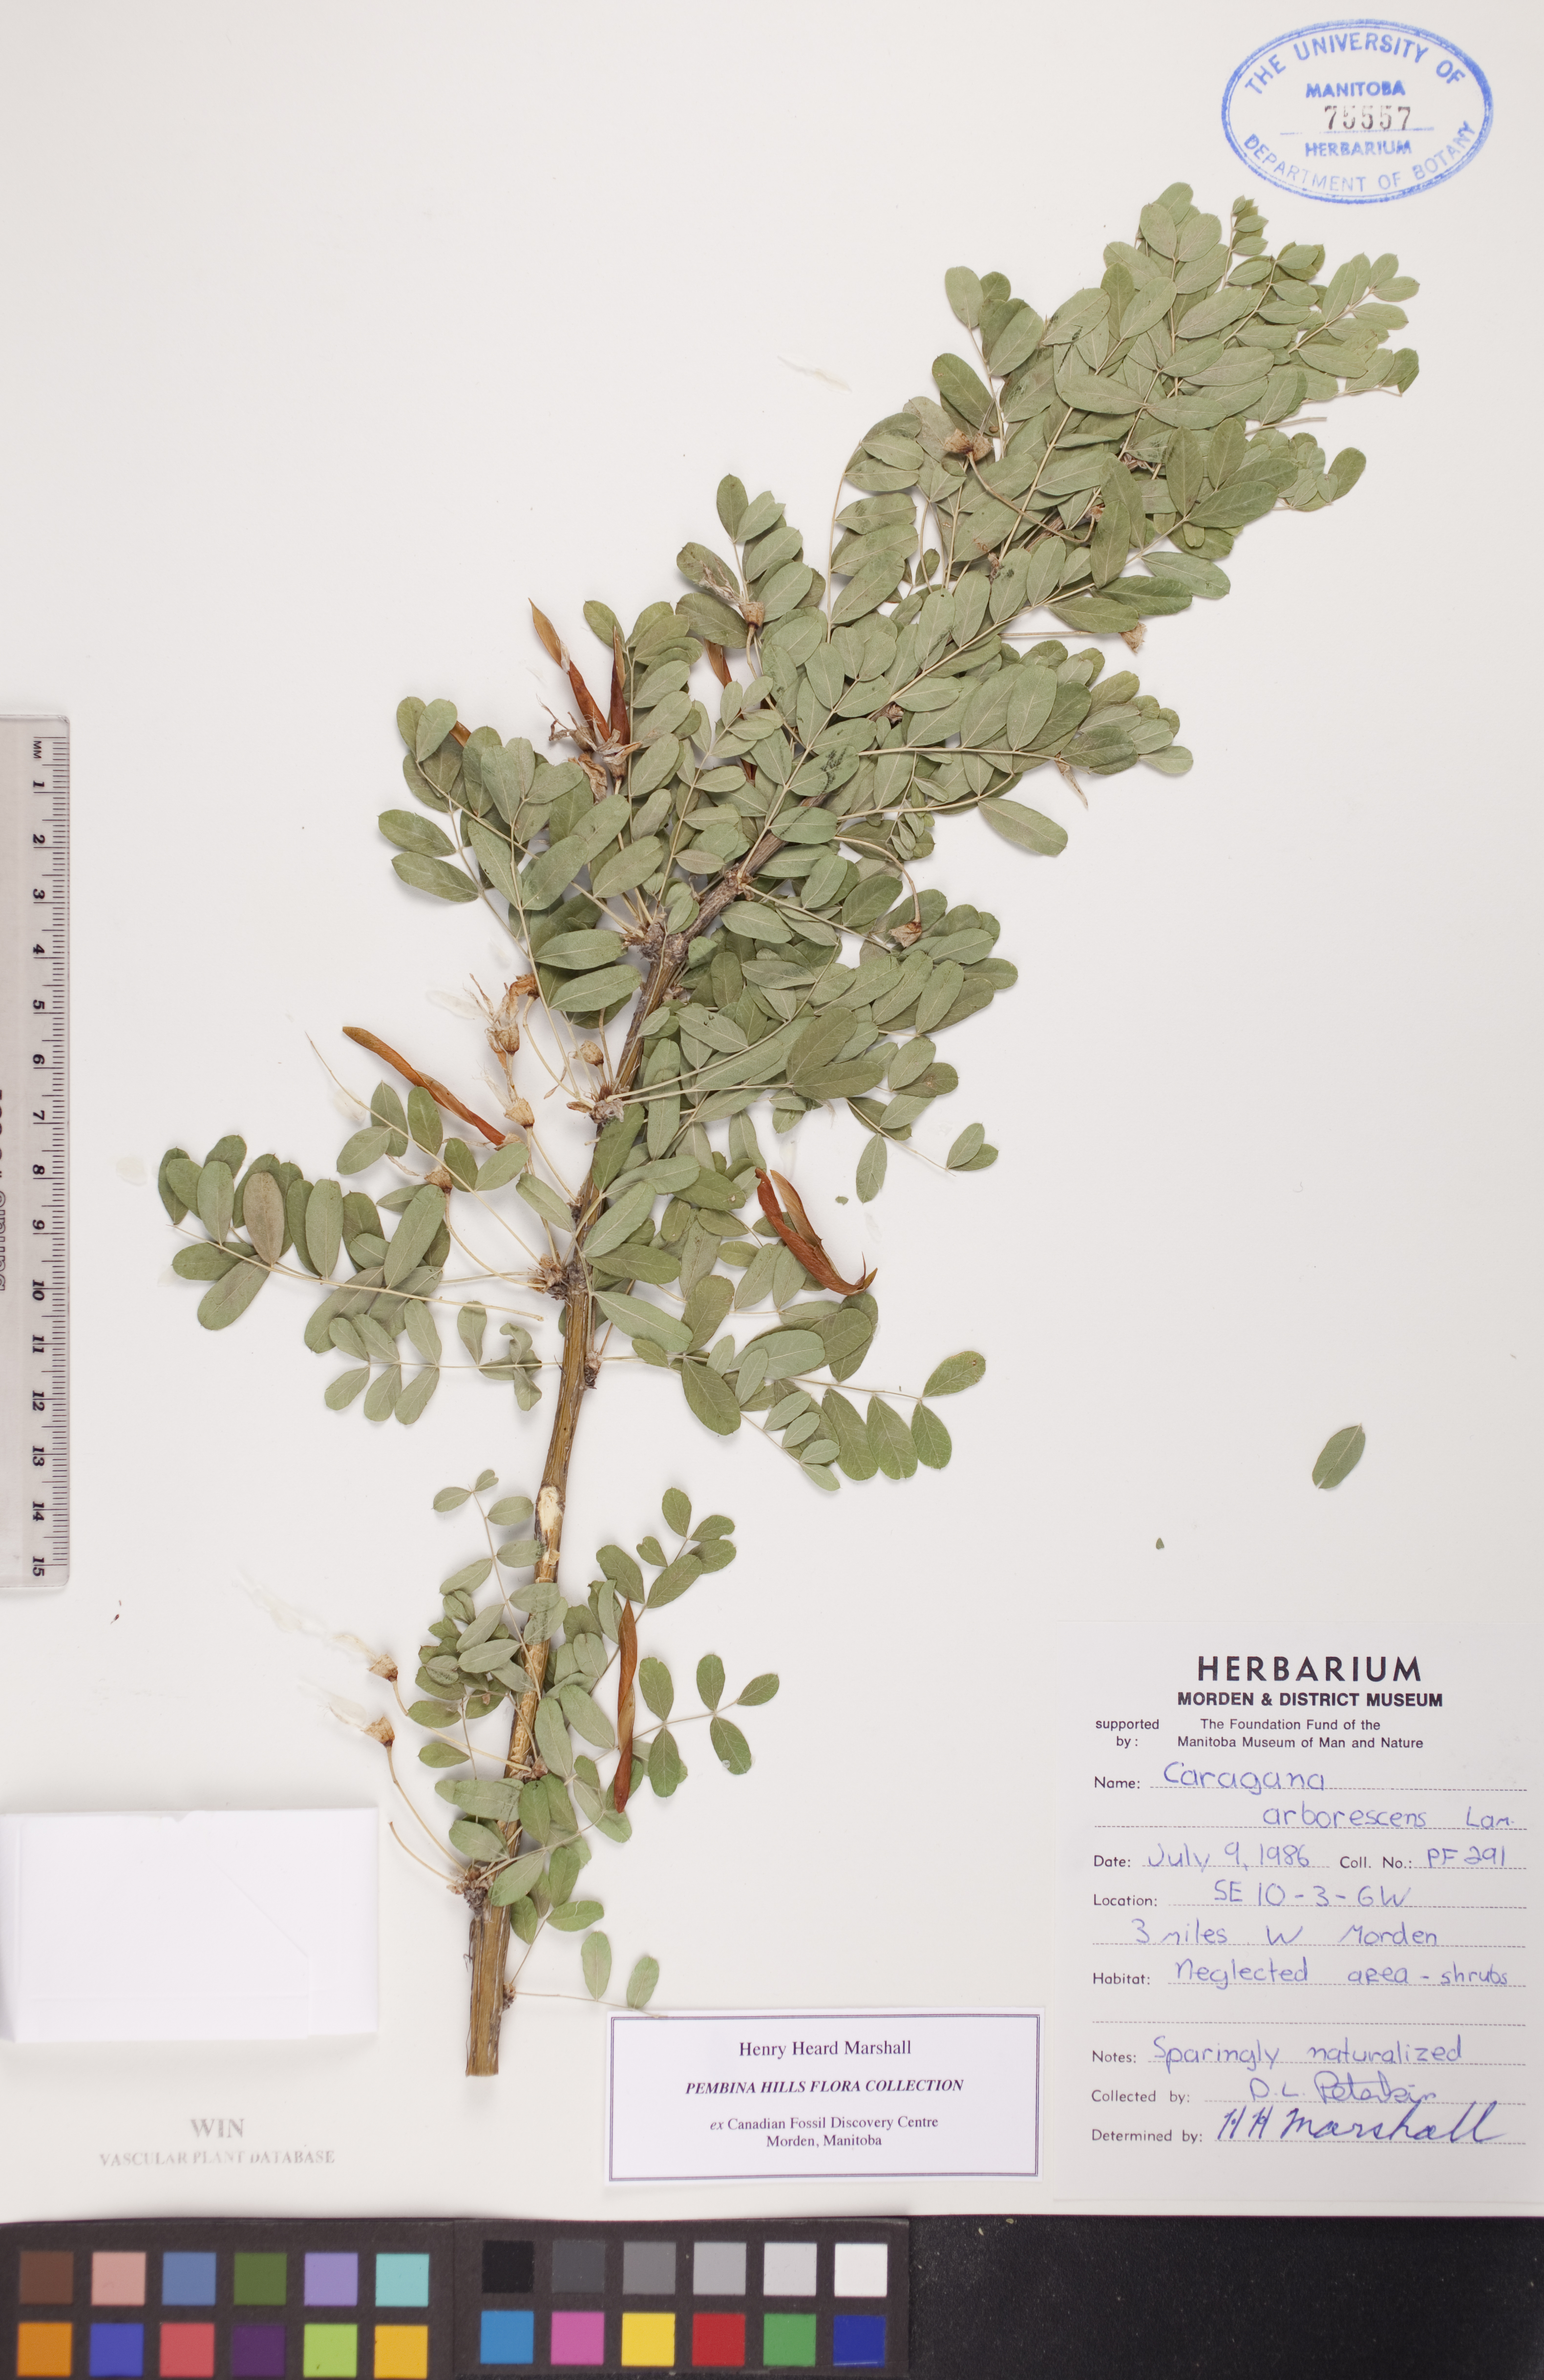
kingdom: Plantae
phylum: Tracheophyta
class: Magnoliopsida
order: Fabales
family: Fabaceae
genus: Caragana
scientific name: Caragana arborescens
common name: Siberian peashrub
